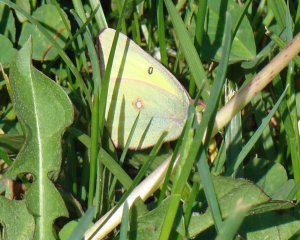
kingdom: Animalia
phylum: Arthropoda
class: Insecta
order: Lepidoptera
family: Pieridae
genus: Colias
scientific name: Colias philodice
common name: Clouded Sulphur
